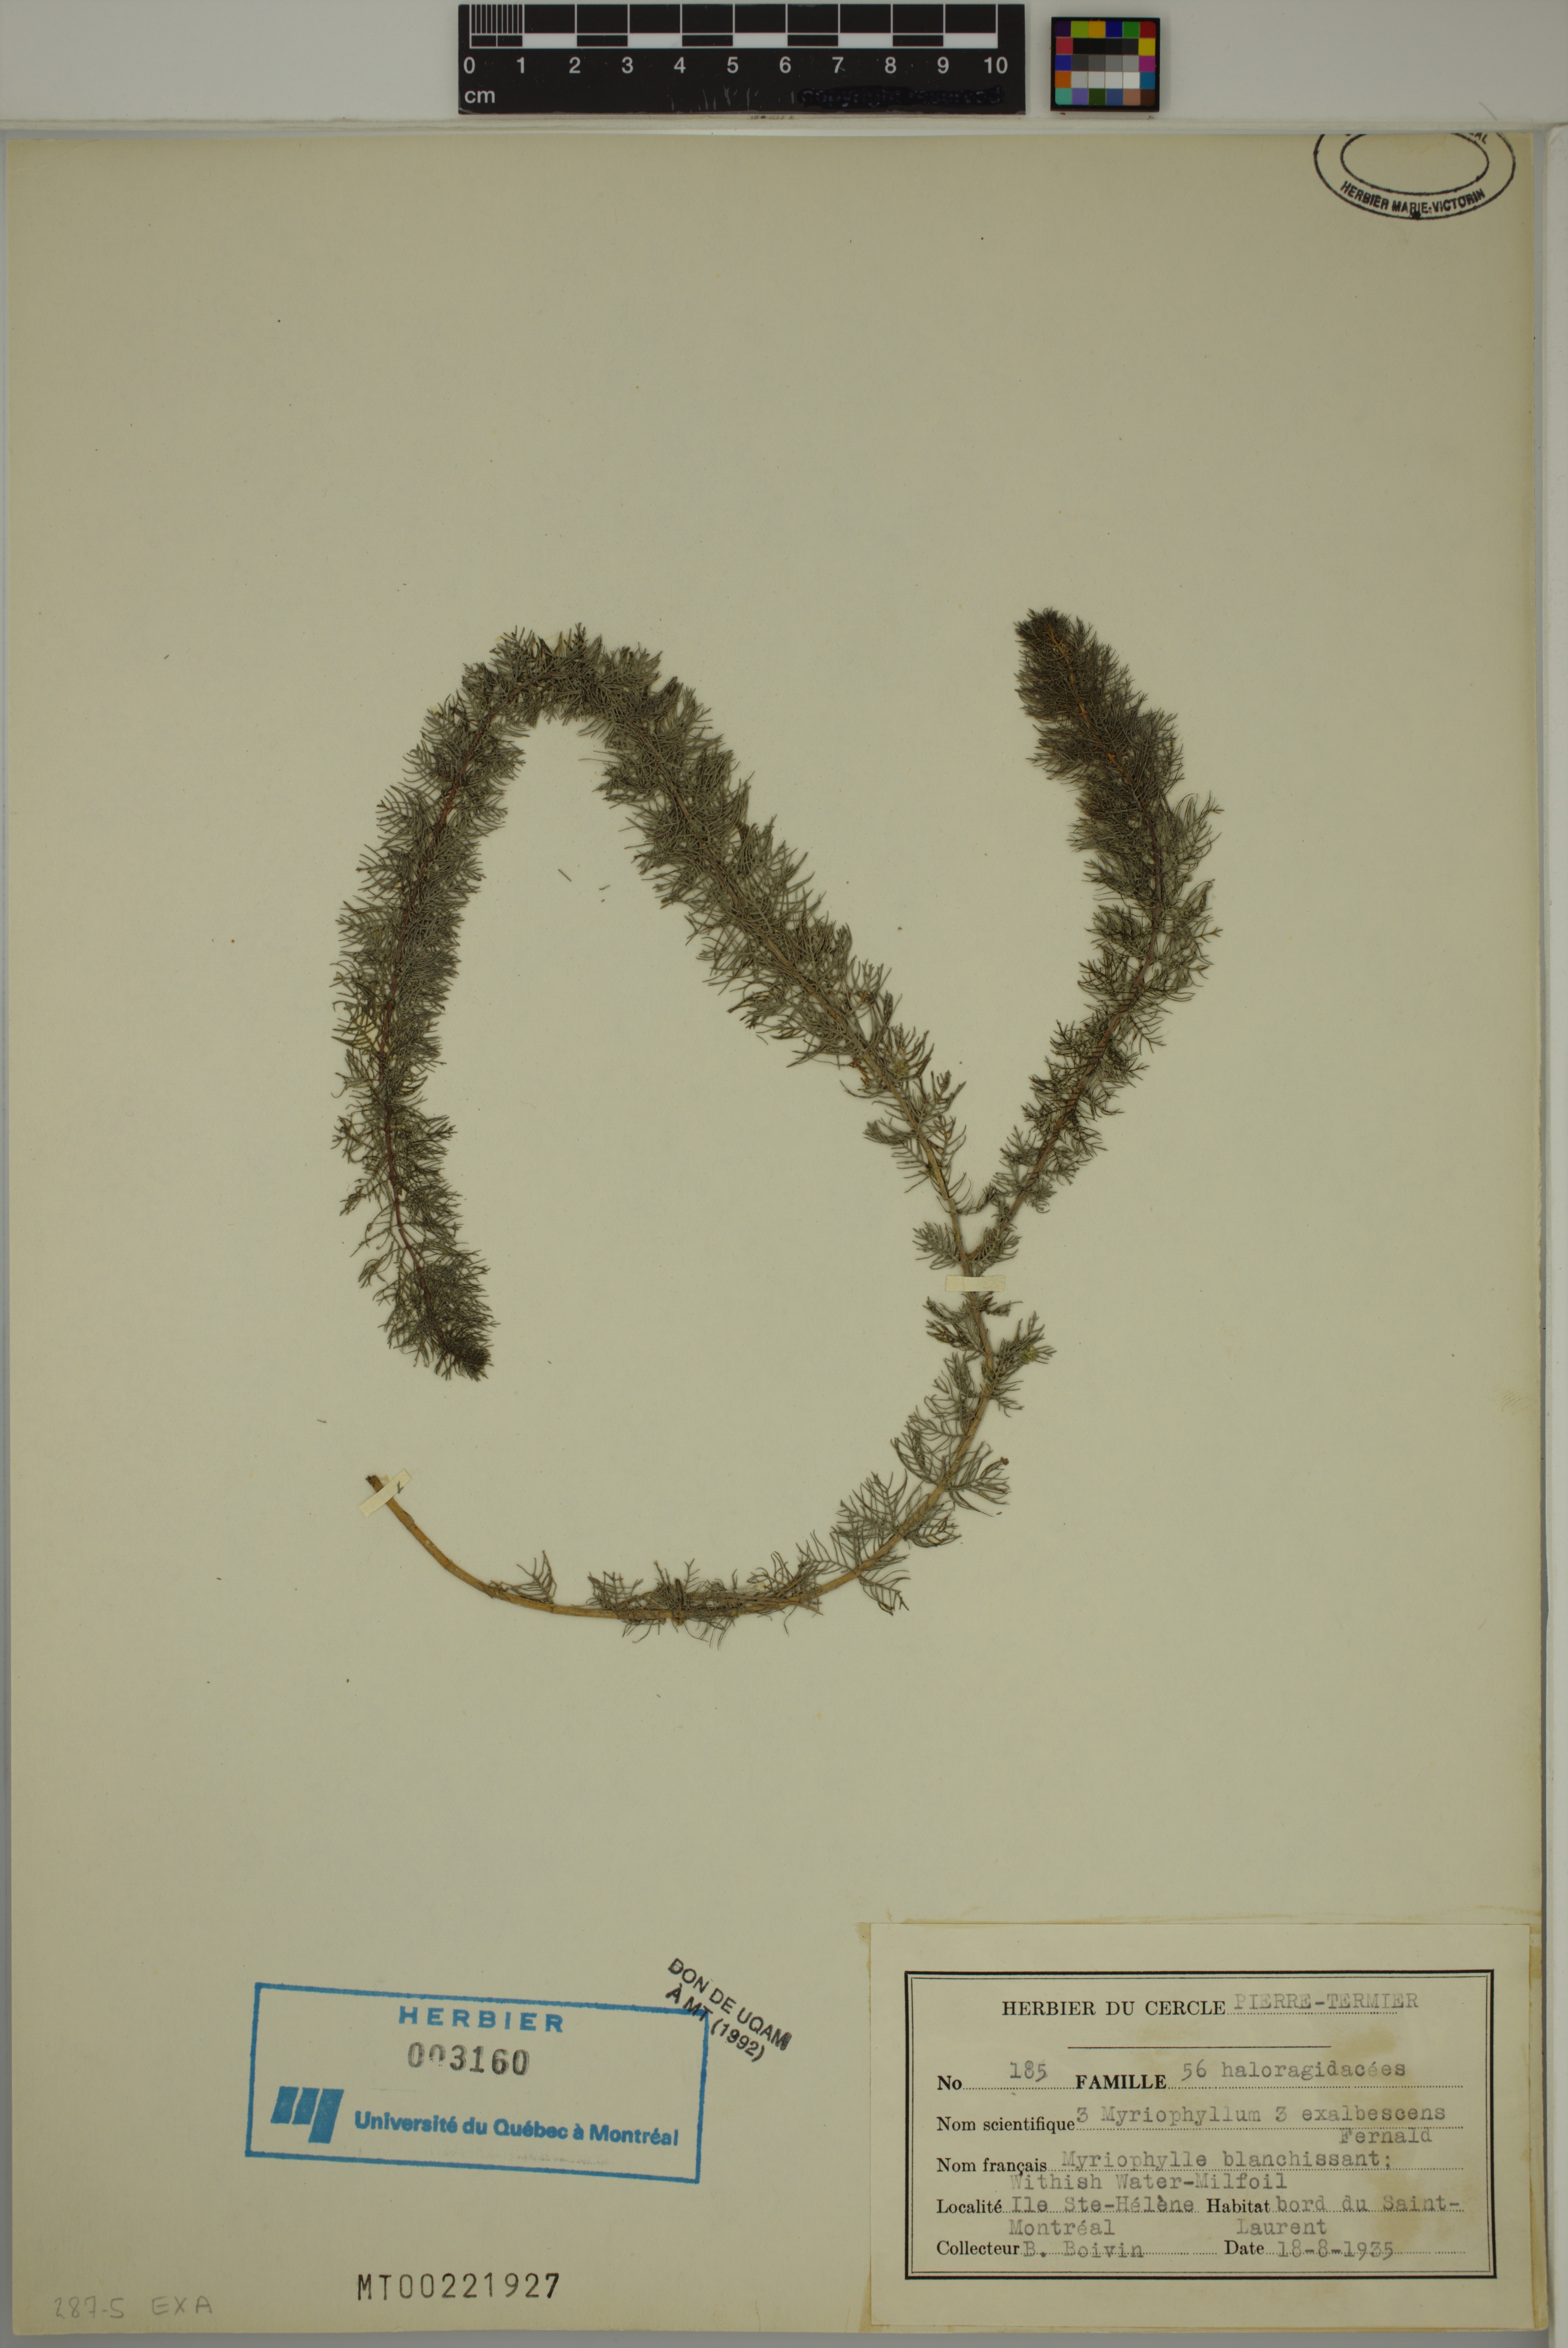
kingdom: Plantae
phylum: Tracheophyta
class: Magnoliopsida
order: Saxifragales
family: Haloragaceae
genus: Myriophyllum
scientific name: Myriophyllum sibiricum
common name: Siberian water-milfoil
